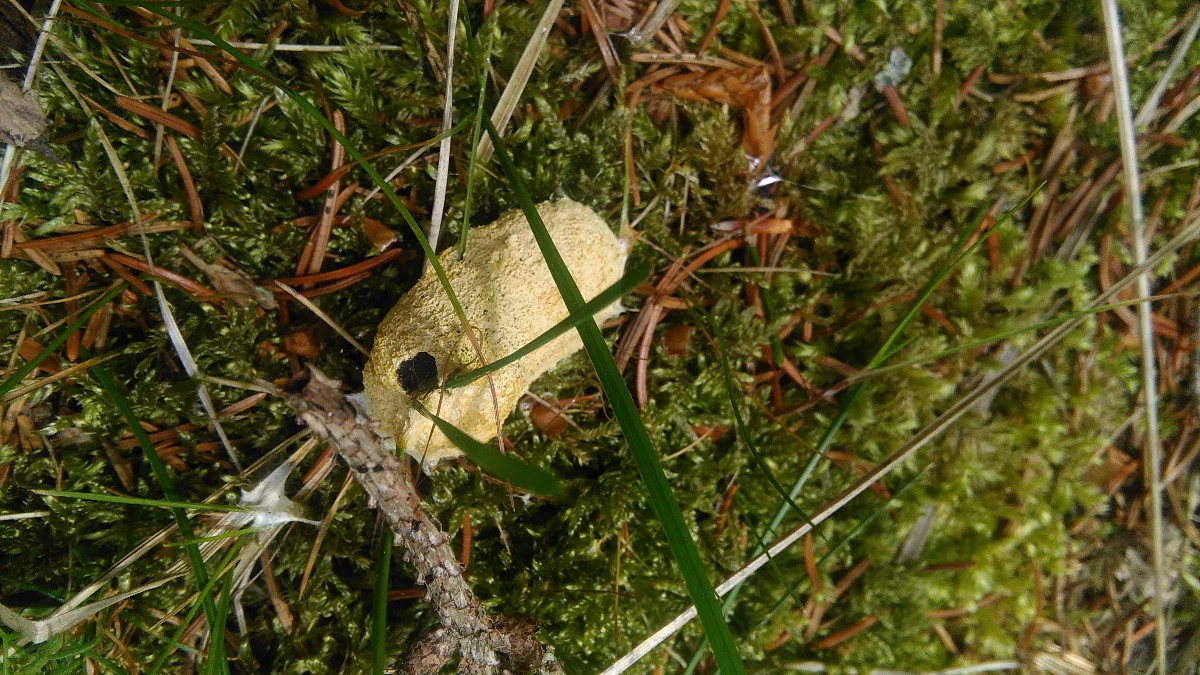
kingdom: Protozoa
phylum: Mycetozoa
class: Myxomycetes
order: Physarales
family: Physaraceae
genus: Fuligo
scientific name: Fuligo septica
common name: gul troldsmør
